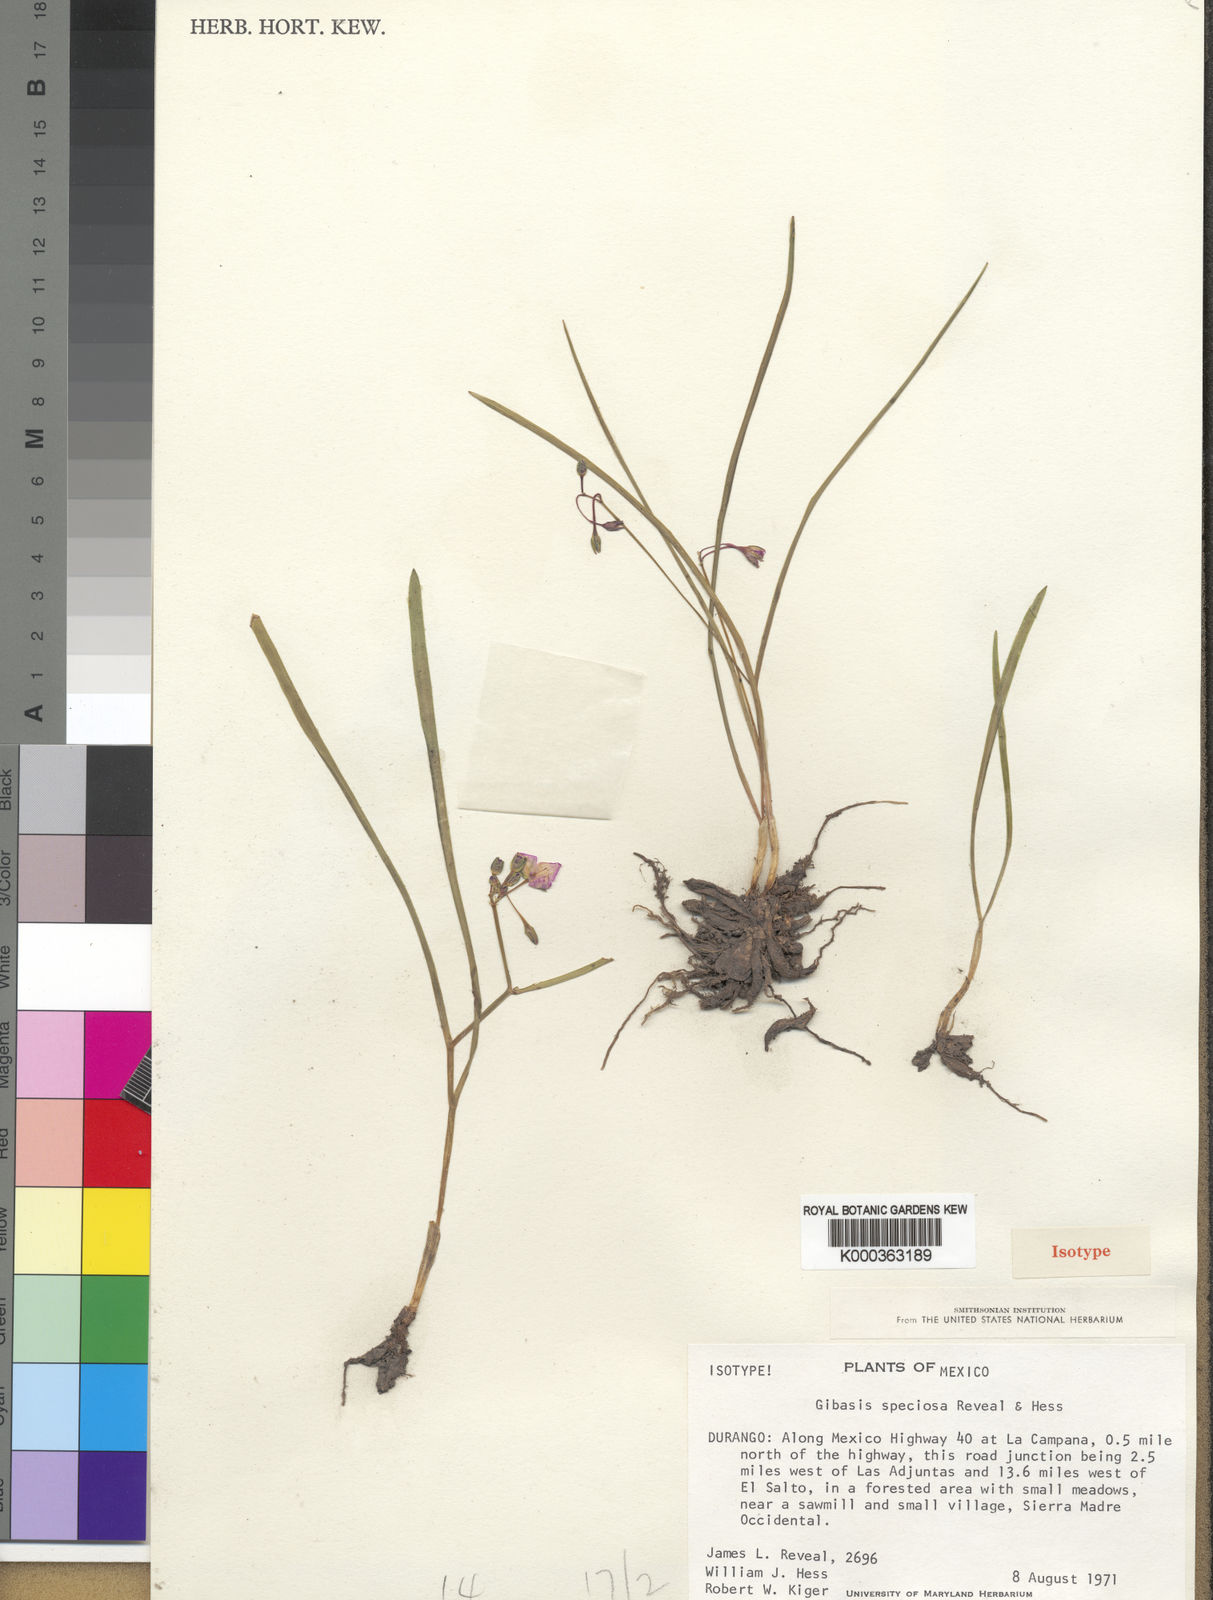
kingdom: Plantae
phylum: Tracheophyta
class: Liliopsida
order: Commelinales
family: Commelinaceae
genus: Gibasis
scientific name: Gibasis linearis
